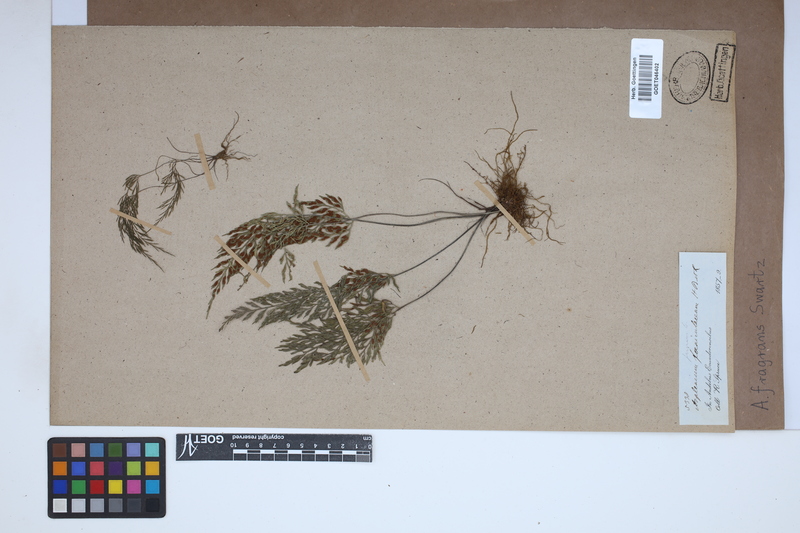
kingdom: Plantae
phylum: Tracheophyta
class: Polypodiopsida
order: Polypodiales
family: Aspleniaceae
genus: Asplenium
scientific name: Asplenium fragrans
